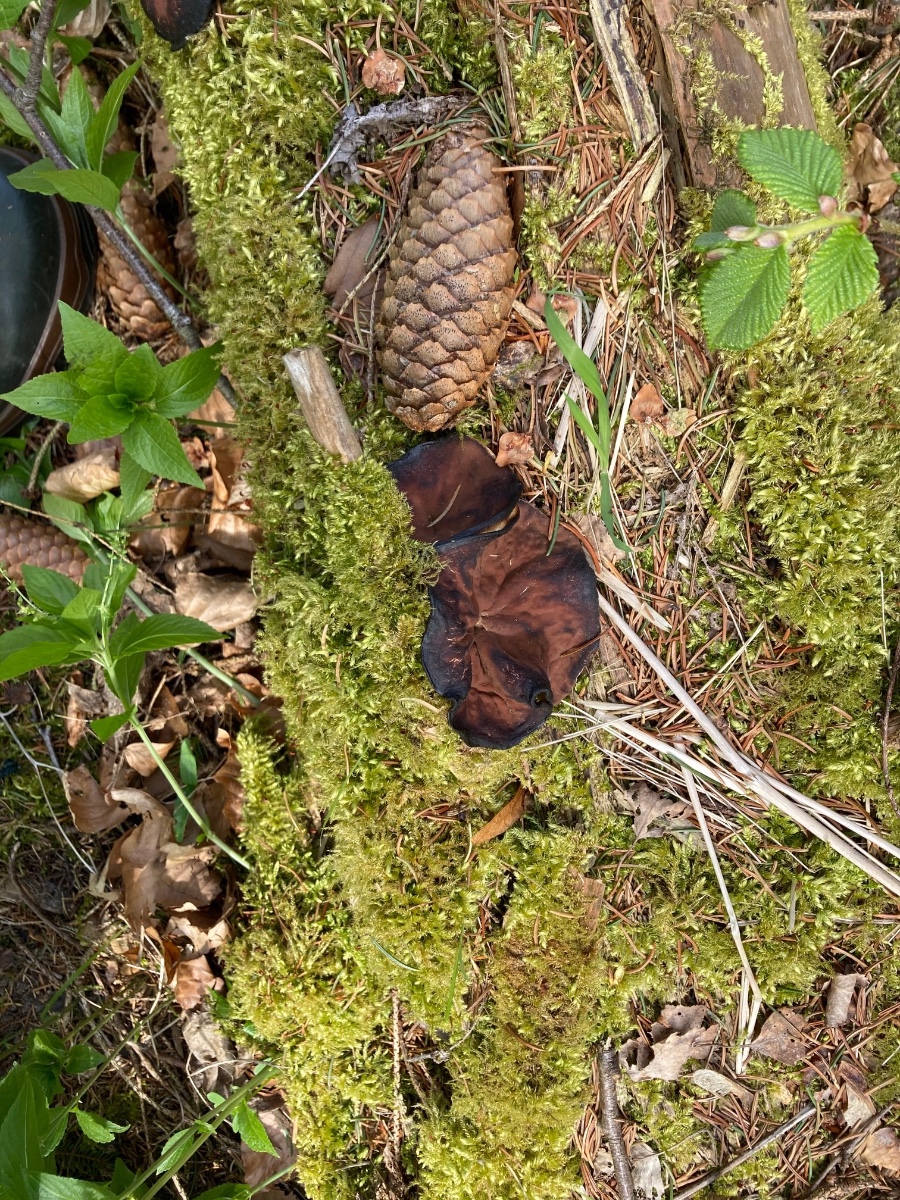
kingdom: Fungi
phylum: Ascomycota
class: Pezizomycetes
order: Pezizales
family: Discinaceae
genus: Discina
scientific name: Discina ancilis
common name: udbredt stenmorkel
